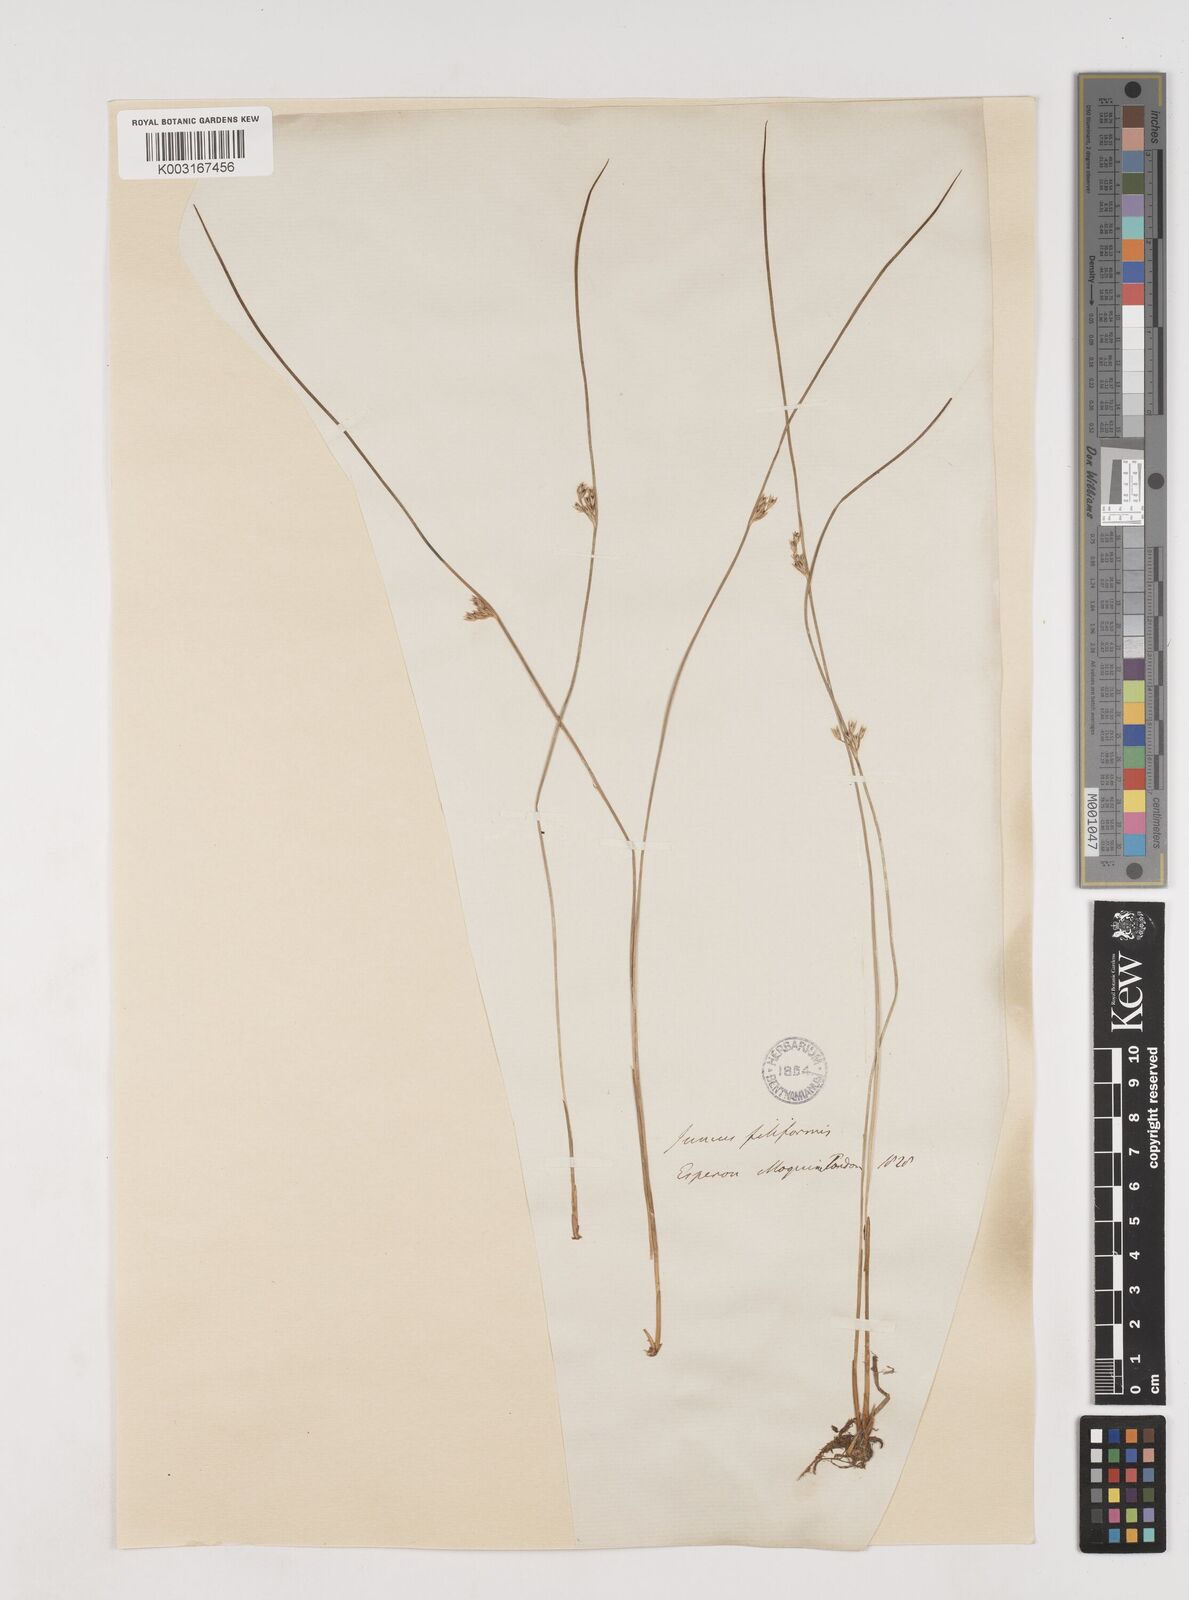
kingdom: Plantae
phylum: Tracheophyta
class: Liliopsida
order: Poales
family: Juncaceae
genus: Juncus
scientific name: Juncus filiformis
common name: Thread rush
